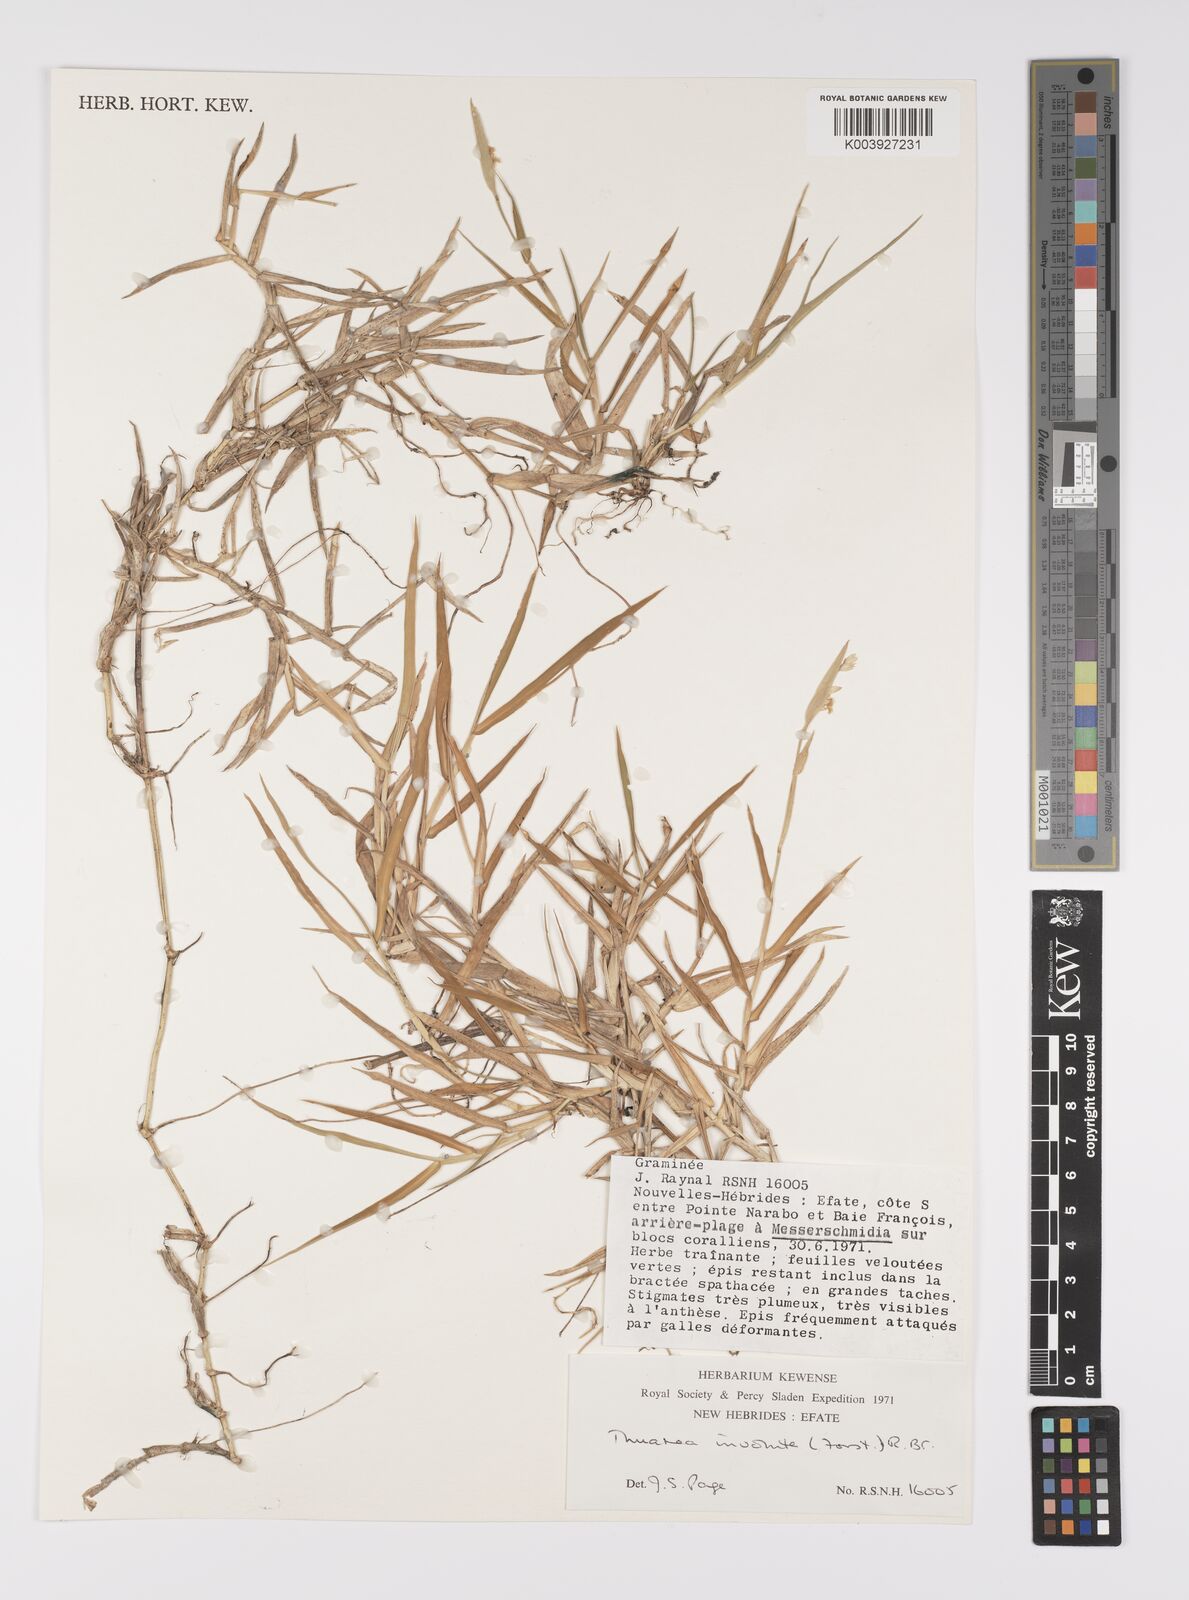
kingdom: Plantae
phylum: Tracheophyta
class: Liliopsida
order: Poales
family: Poaceae
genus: Thuarea
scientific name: Thuarea involuta
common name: Tropical beach grass
